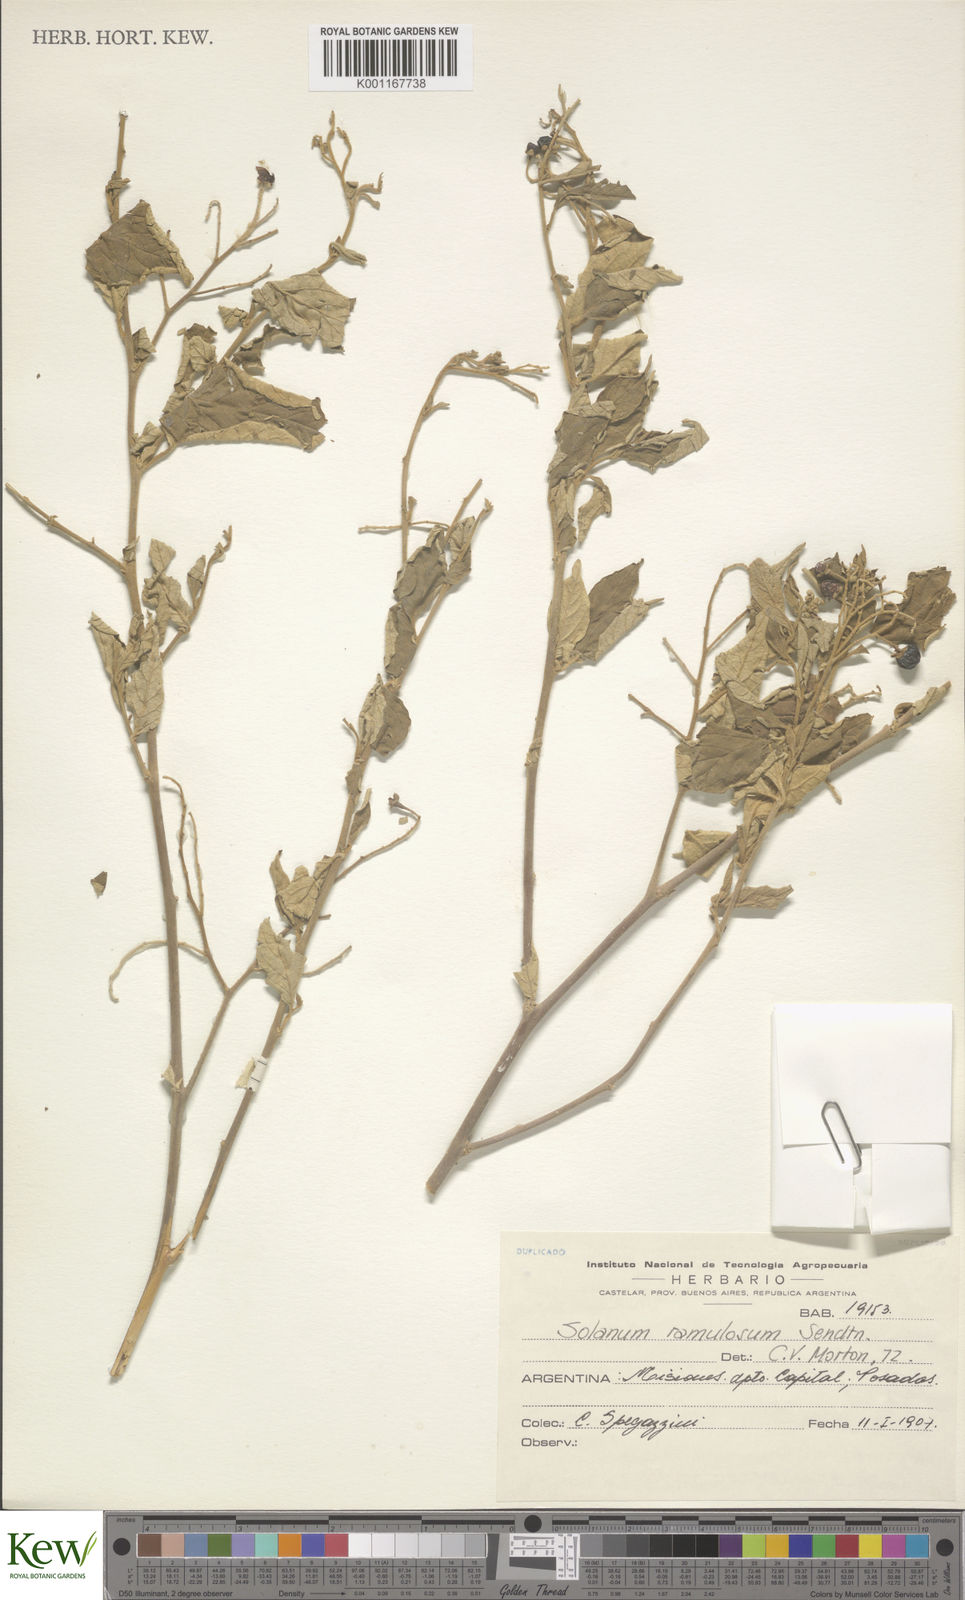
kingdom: Plantae
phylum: Tracheophyta
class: Magnoliopsida
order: Solanales
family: Solanaceae
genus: Solanum
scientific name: Solanum ramulosum
